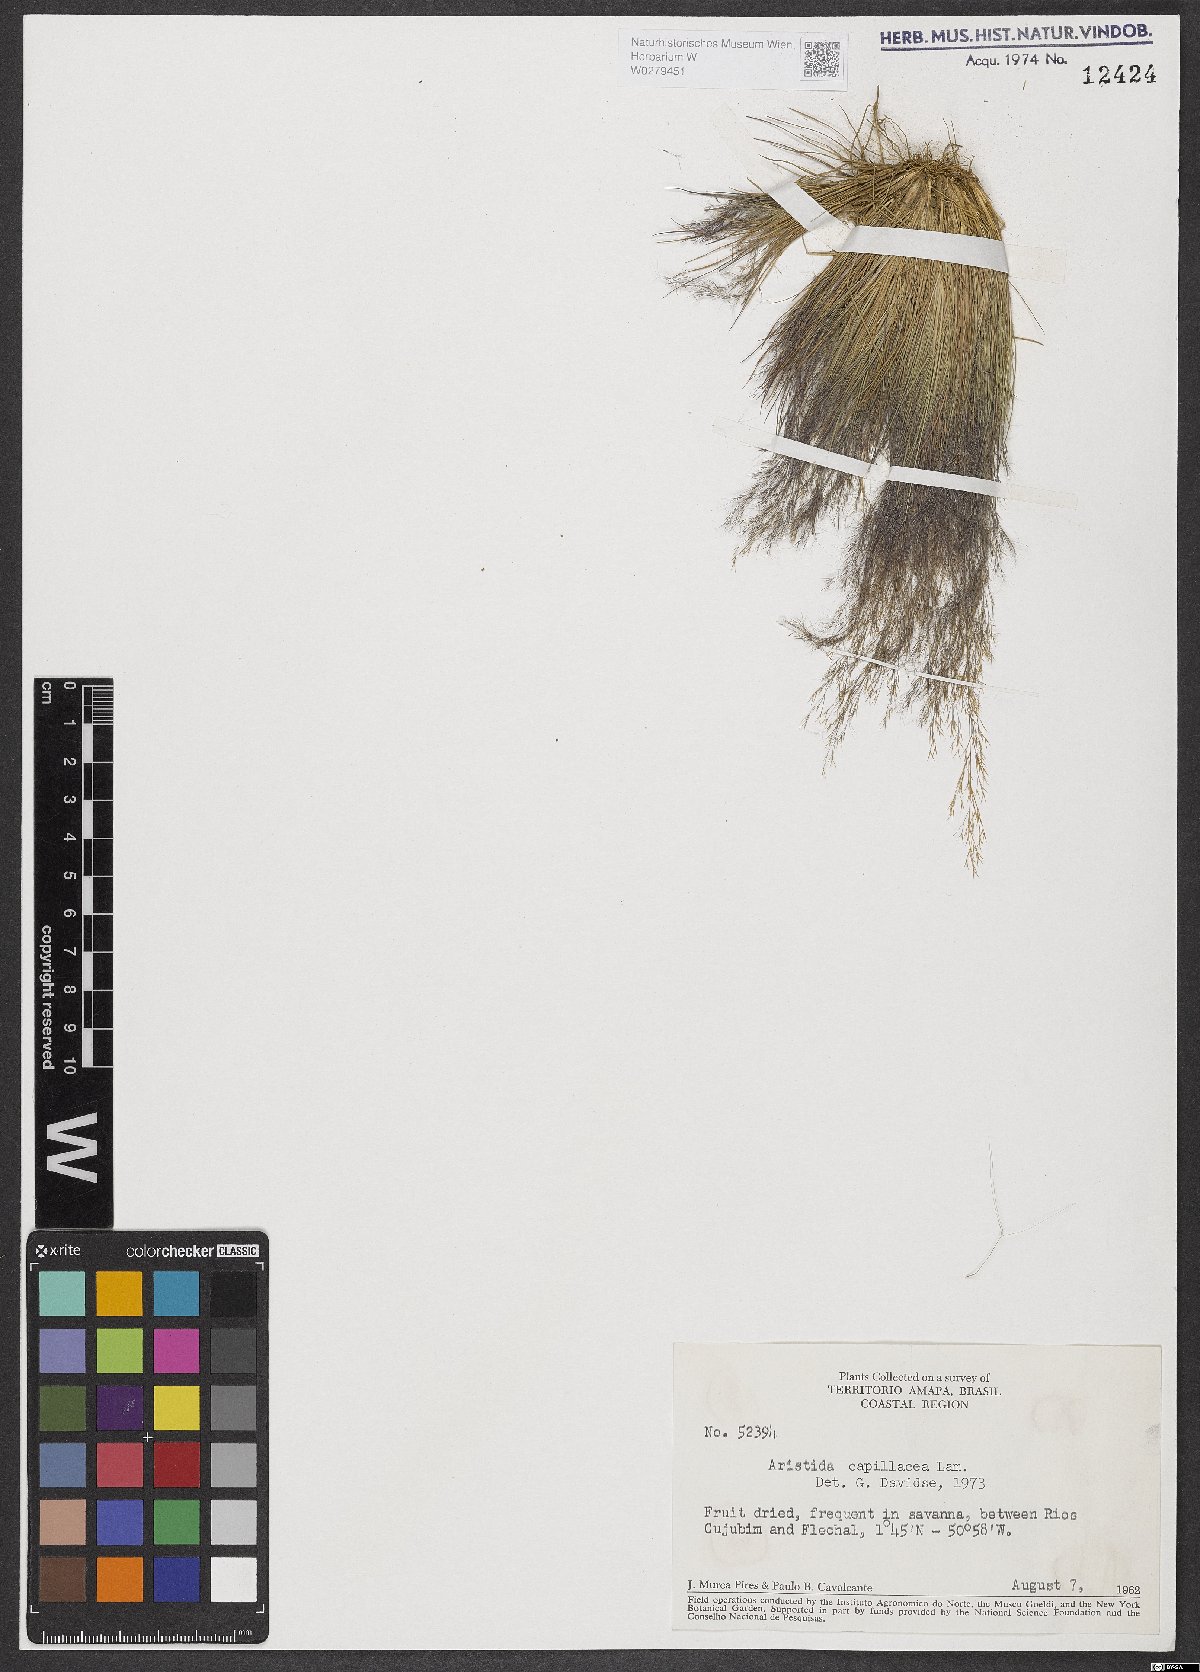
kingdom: Plantae
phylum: Tracheophyta
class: Liliopsida
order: Poales
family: Poaceae
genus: Aristida
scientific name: Aristida capillacea
